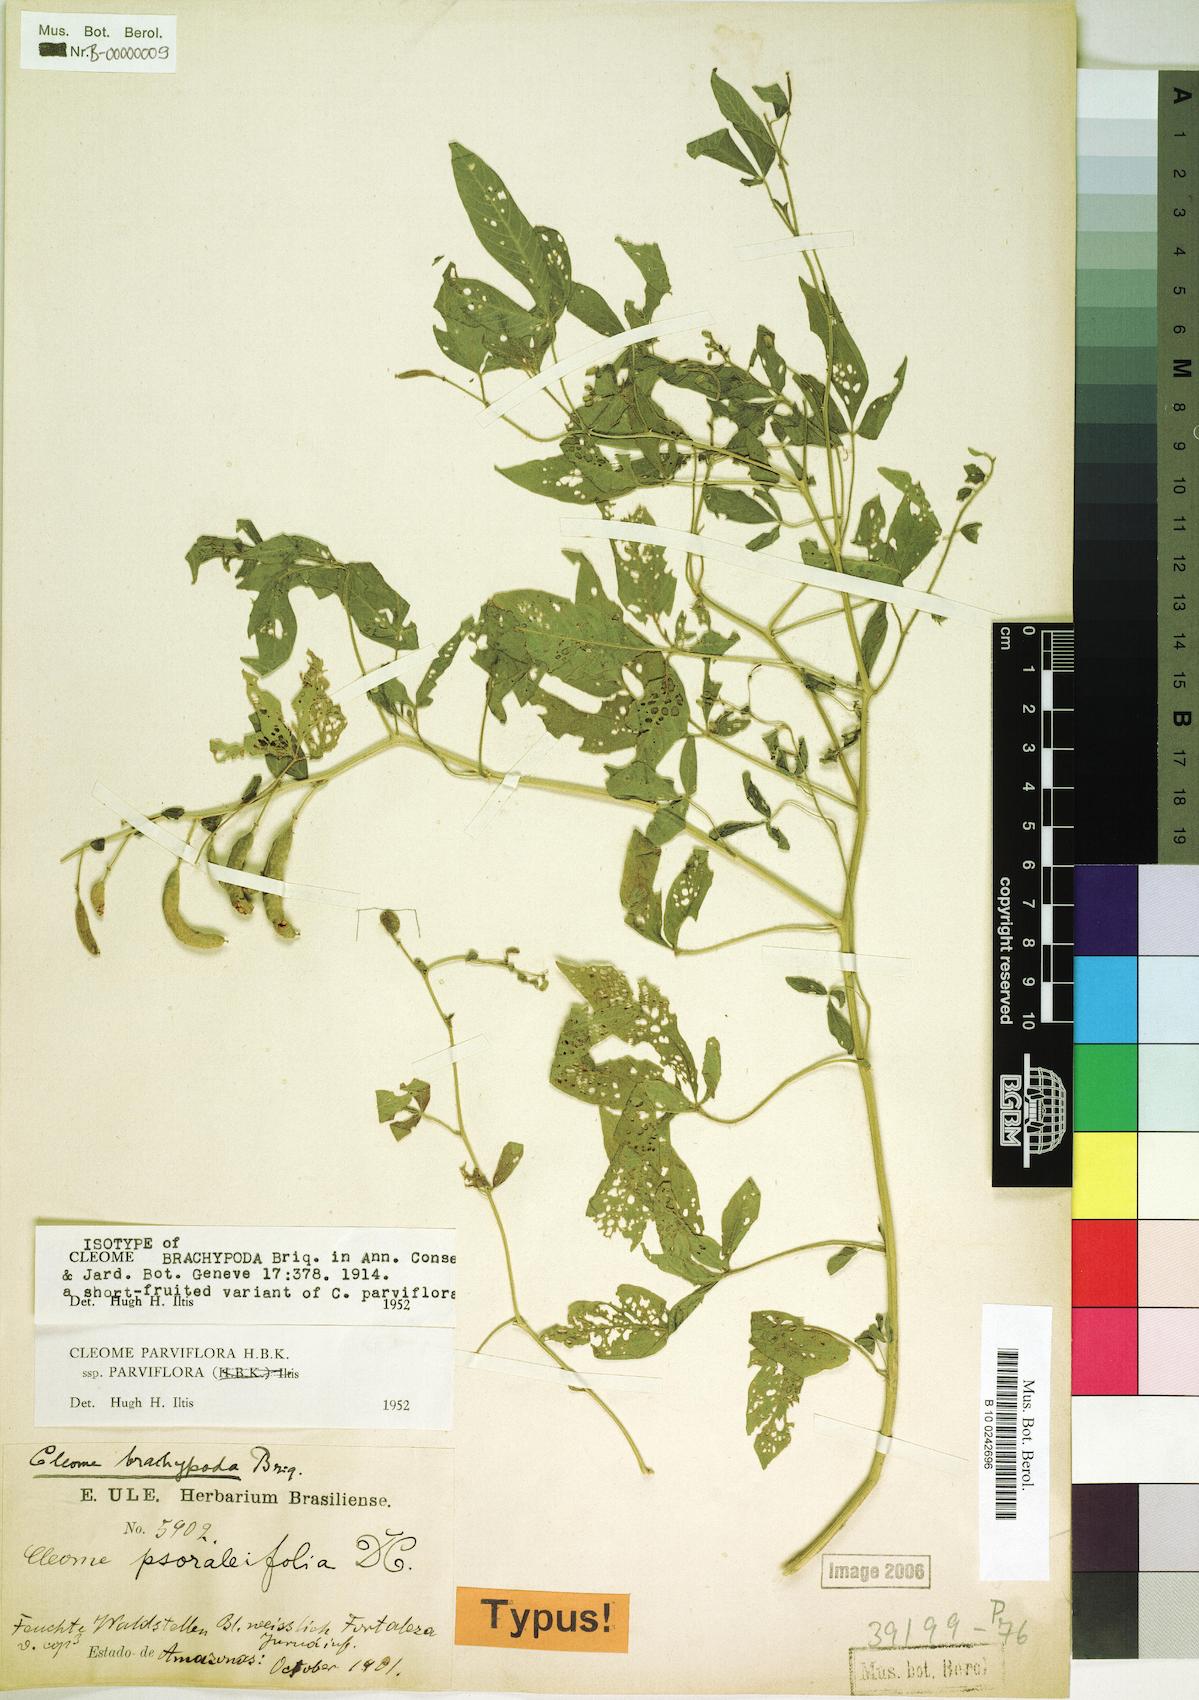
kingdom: Plantae
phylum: Tracheophyta
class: Magnoliopsida
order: Brassicales
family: Cleomaceae
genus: Tarenaya
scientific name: Tarenaya parviflora
